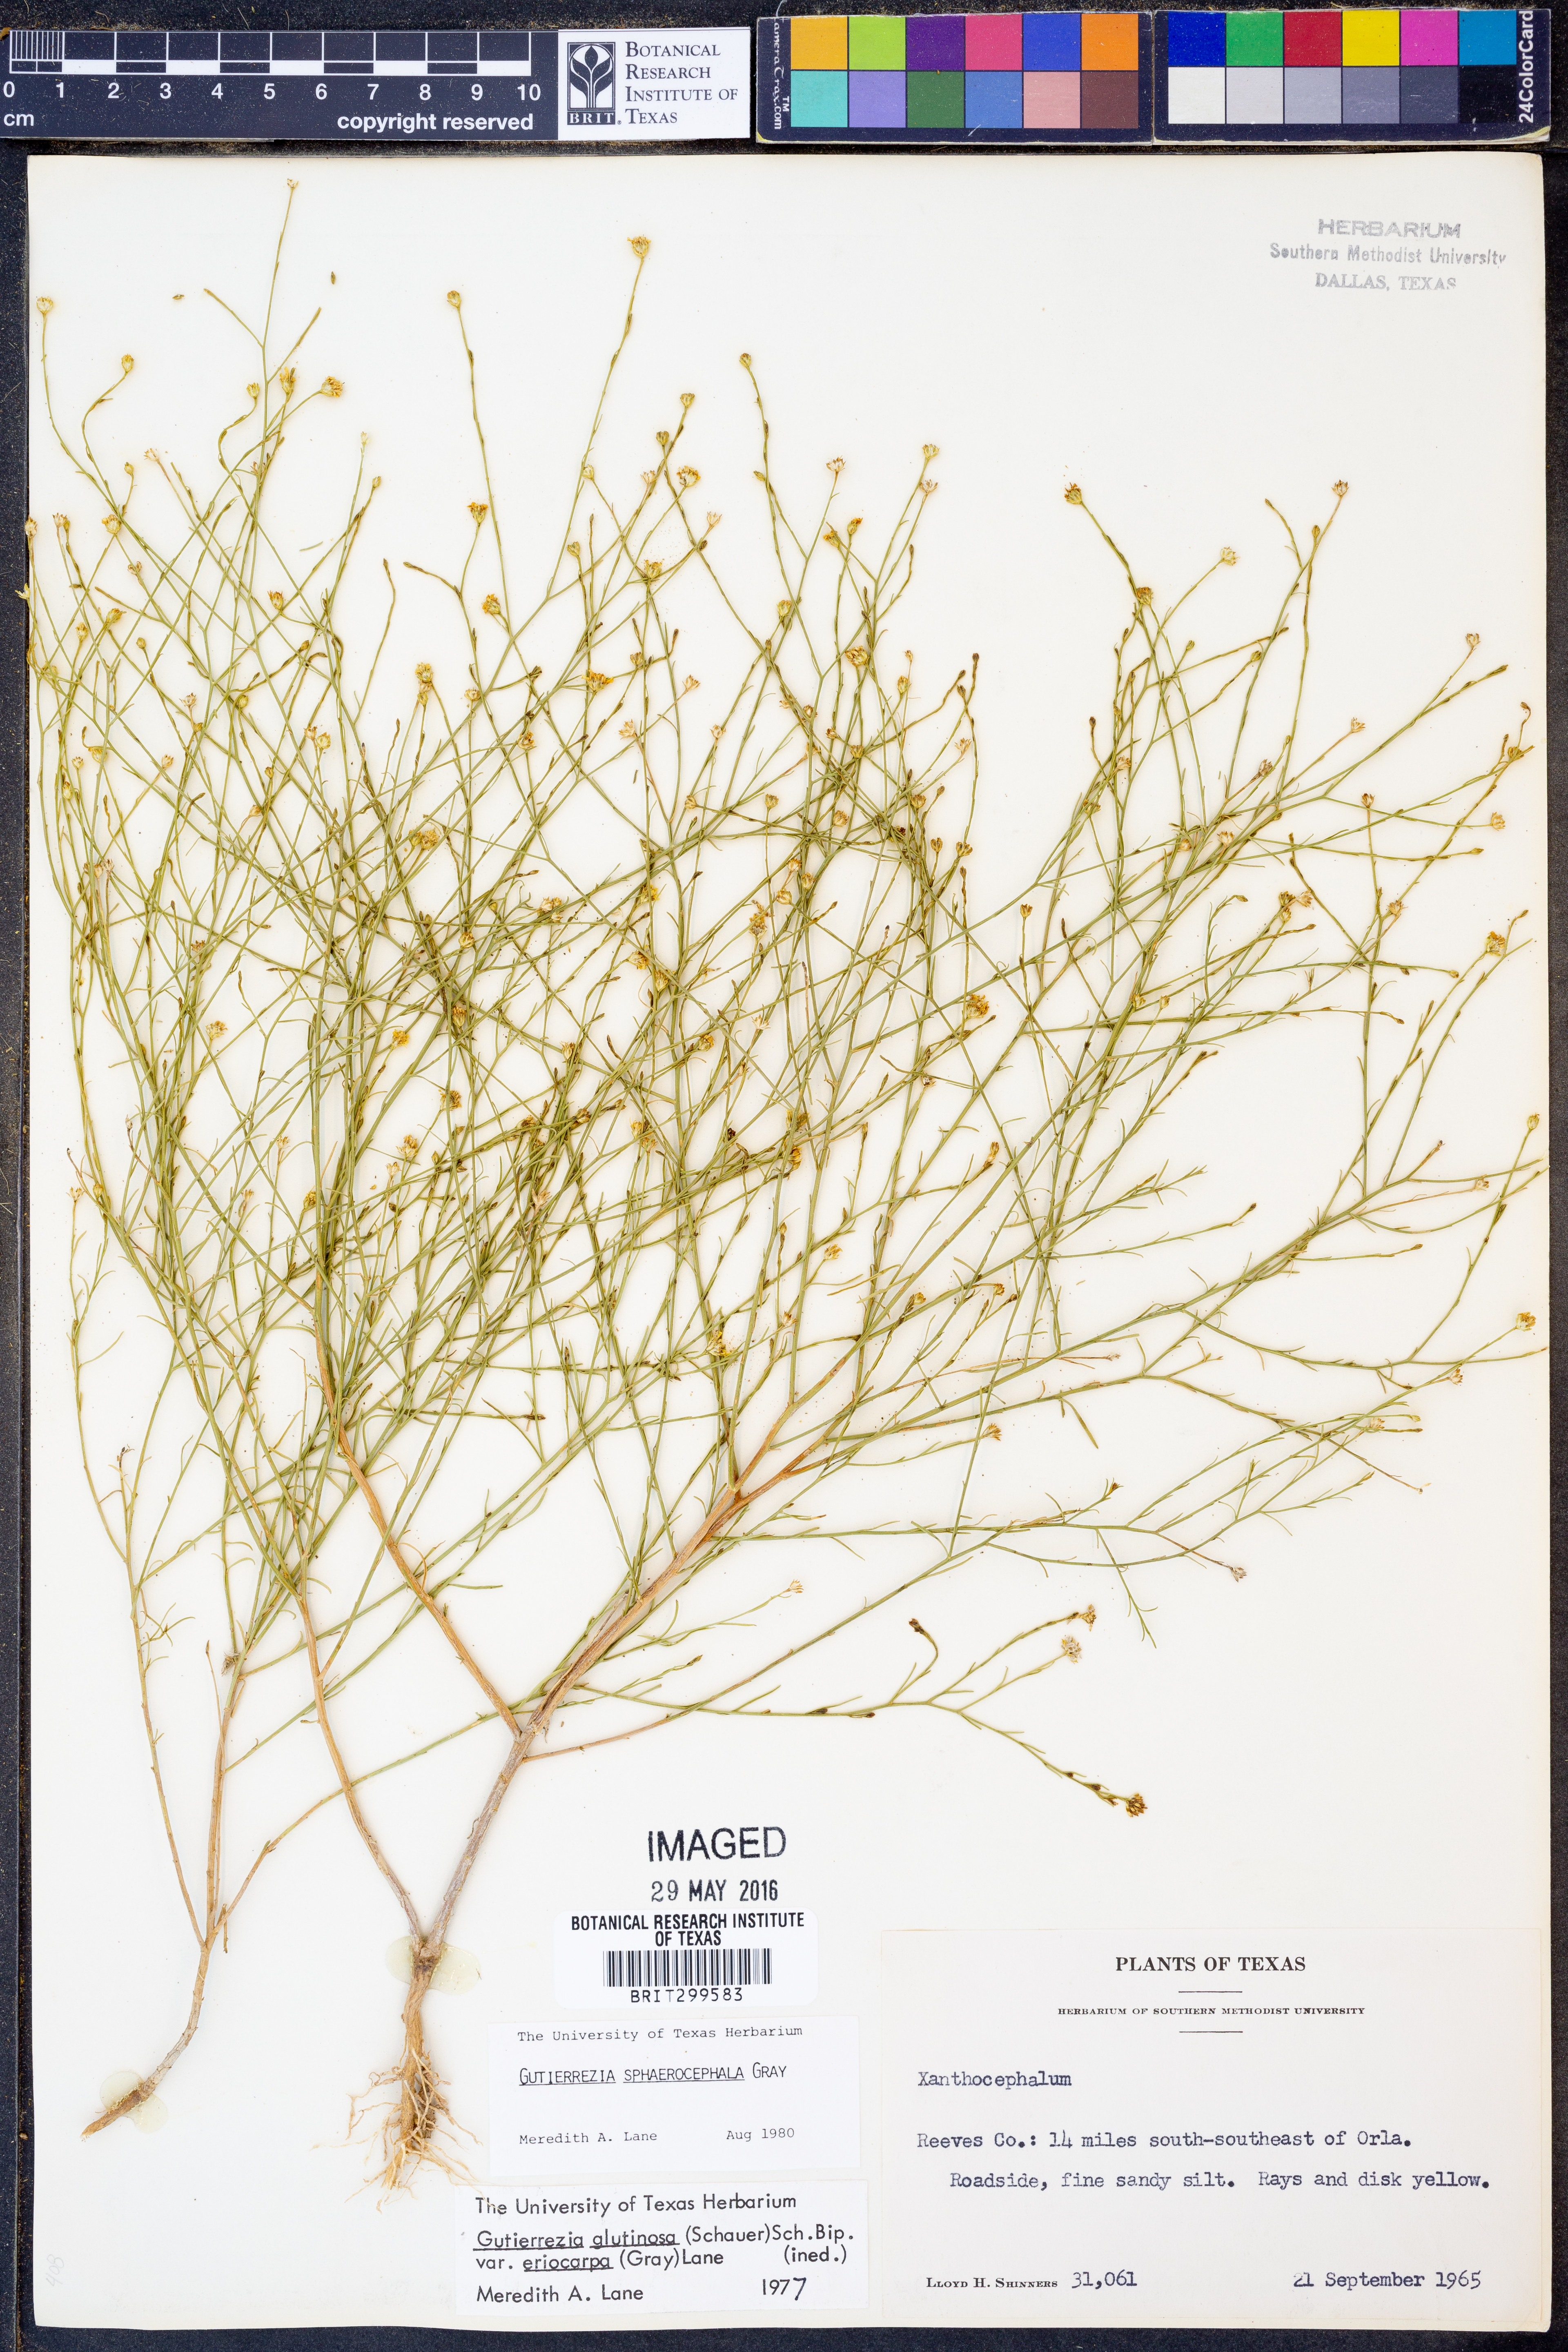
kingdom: Plantae
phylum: Tracheophyta
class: Magnoliopsida
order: Asterales
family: Asteraceae
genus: Gutierrezia
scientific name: Gutierrezia sphaerocephala
